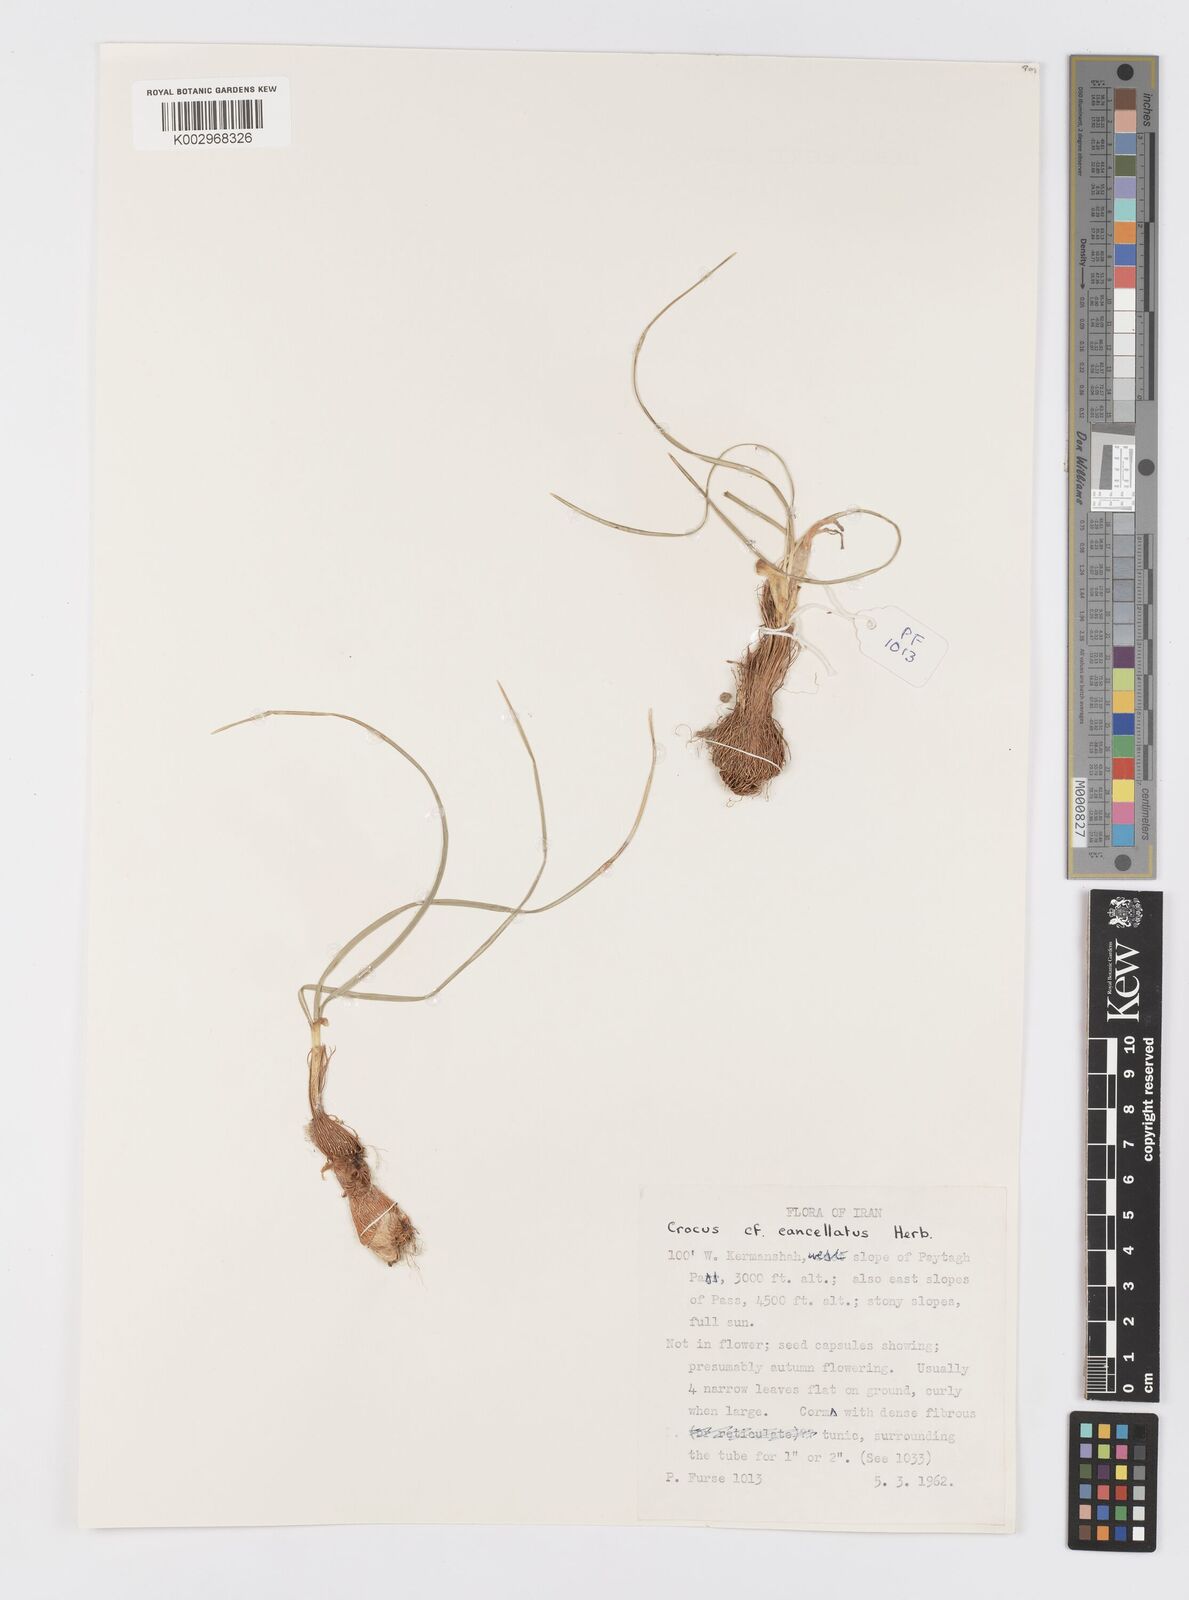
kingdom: Plantae
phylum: Tracheophyta
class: Liliopsida
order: Asparagales
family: Iridaceae
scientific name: Iridaceae
